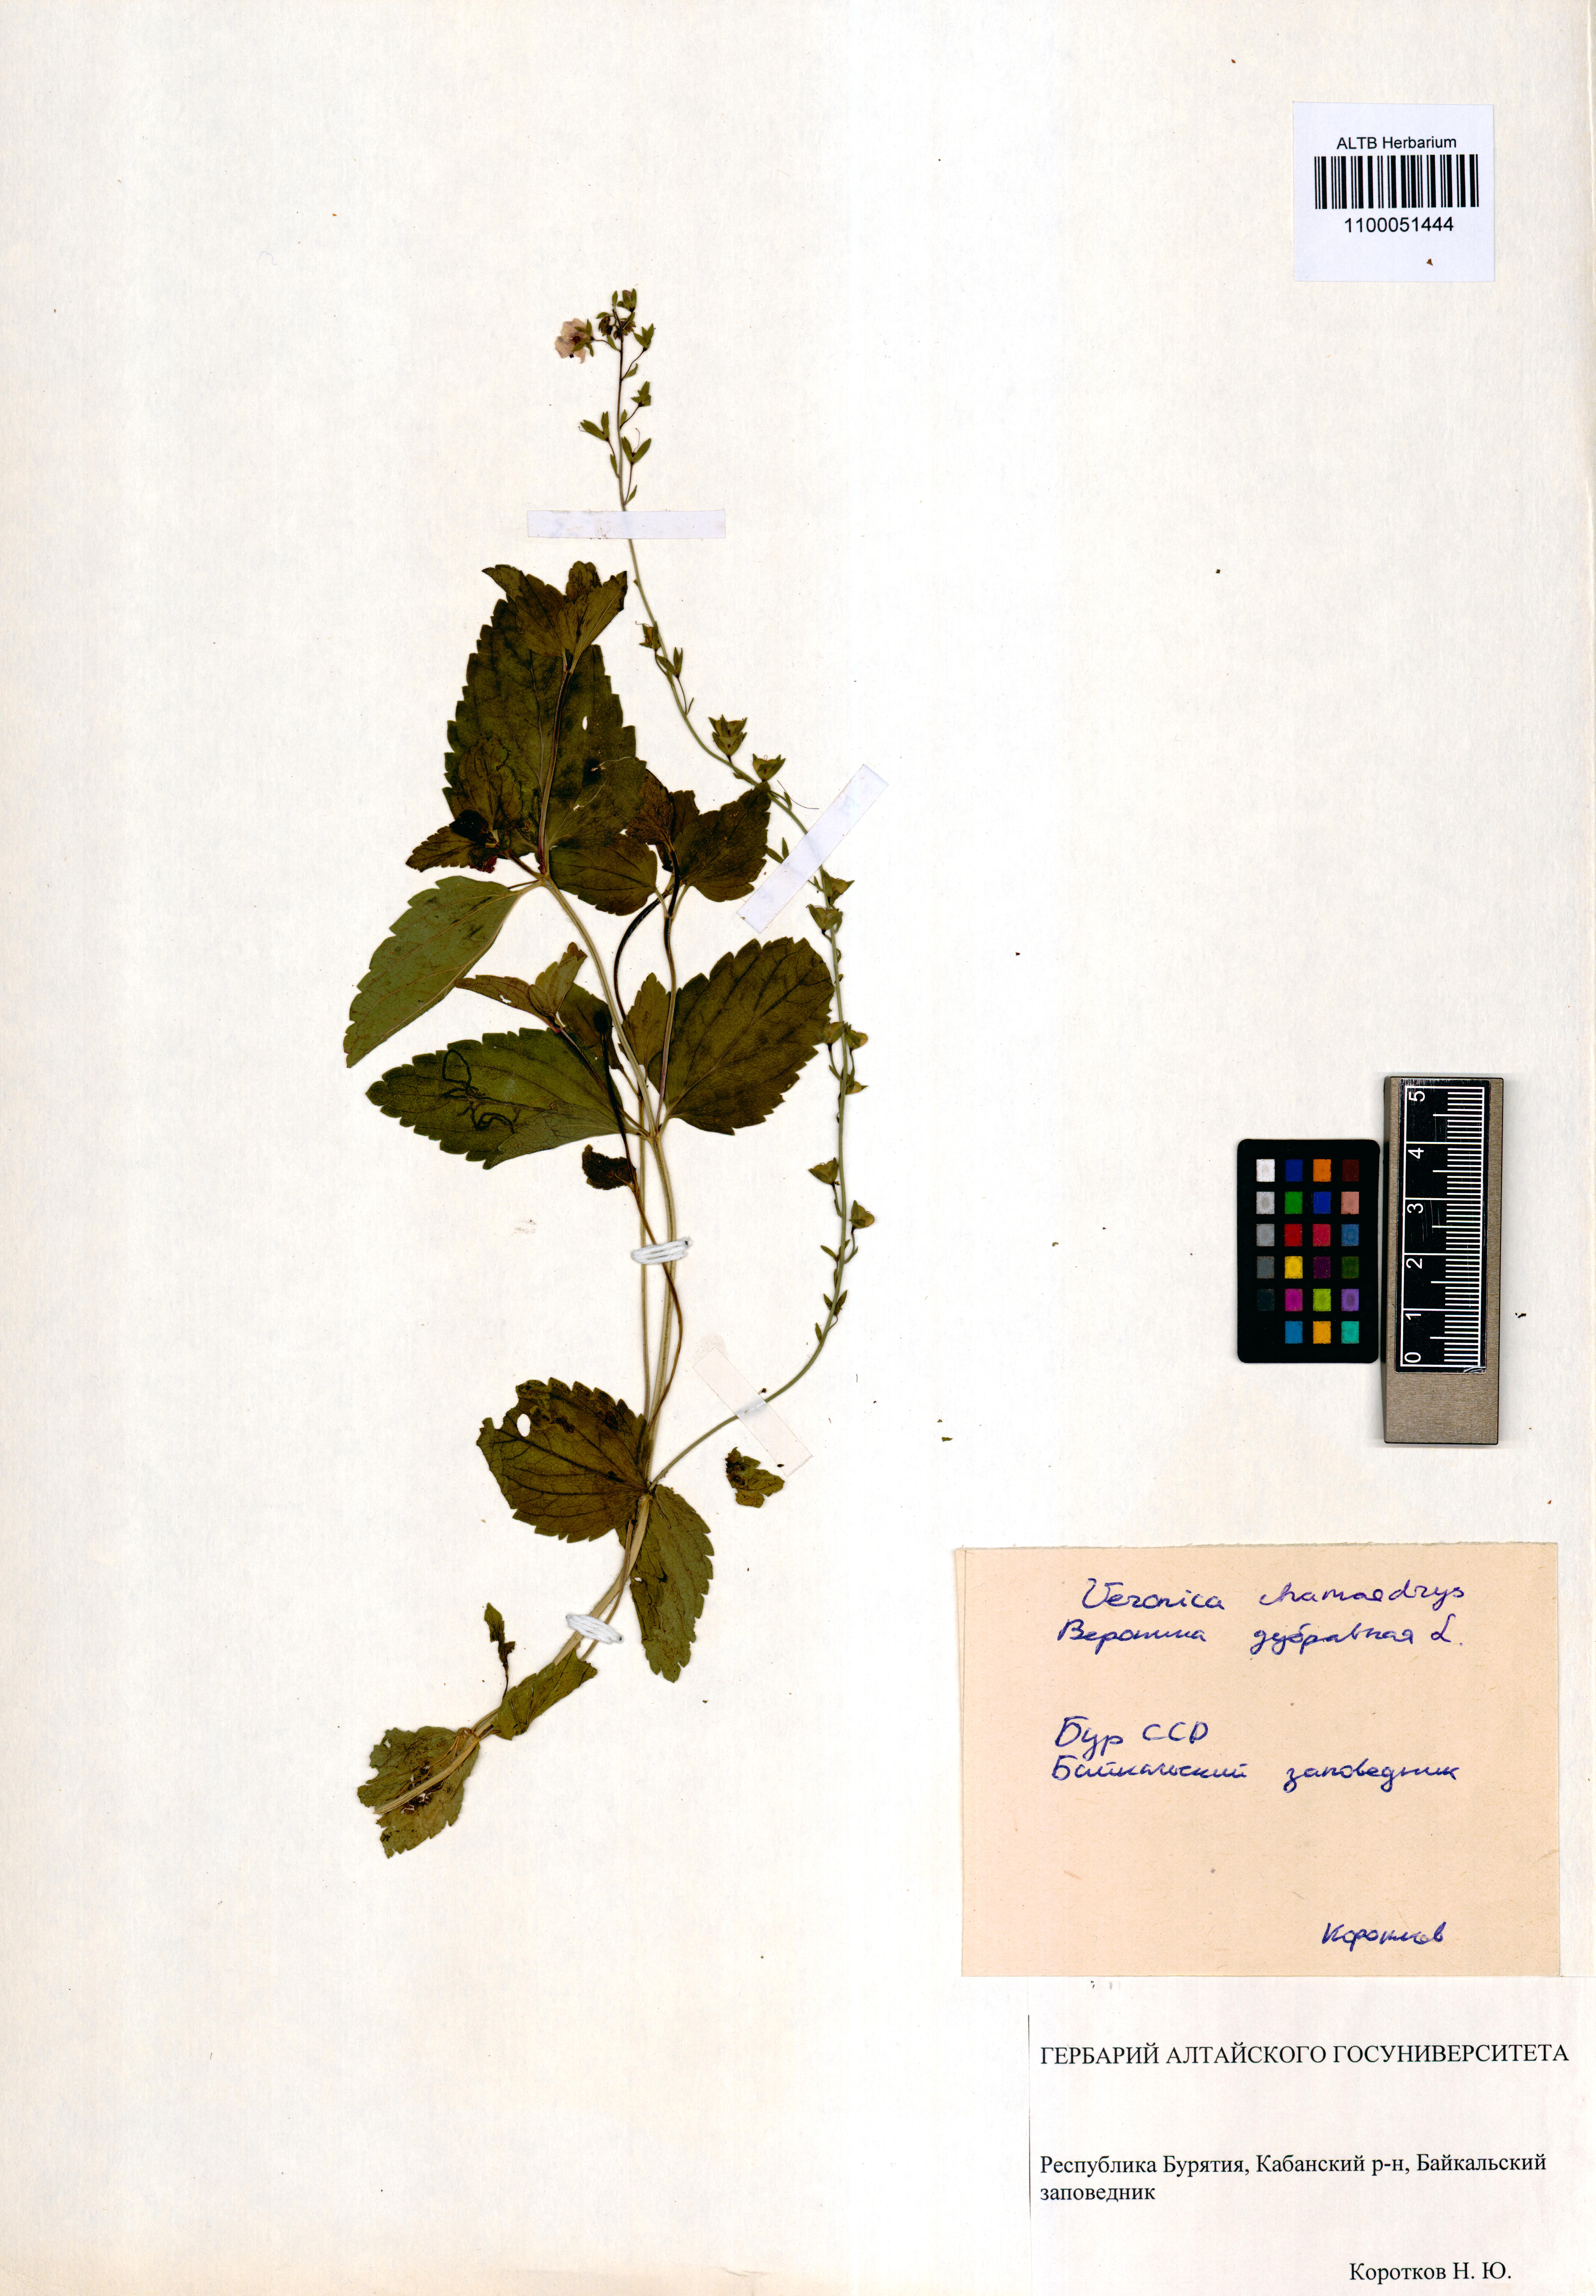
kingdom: Plantae
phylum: Tracheophyta
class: Magnoliopsida
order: Lamiales
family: Plantaginaceae
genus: Veronica
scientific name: Veronica chamaedrys
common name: Germander speedwell
